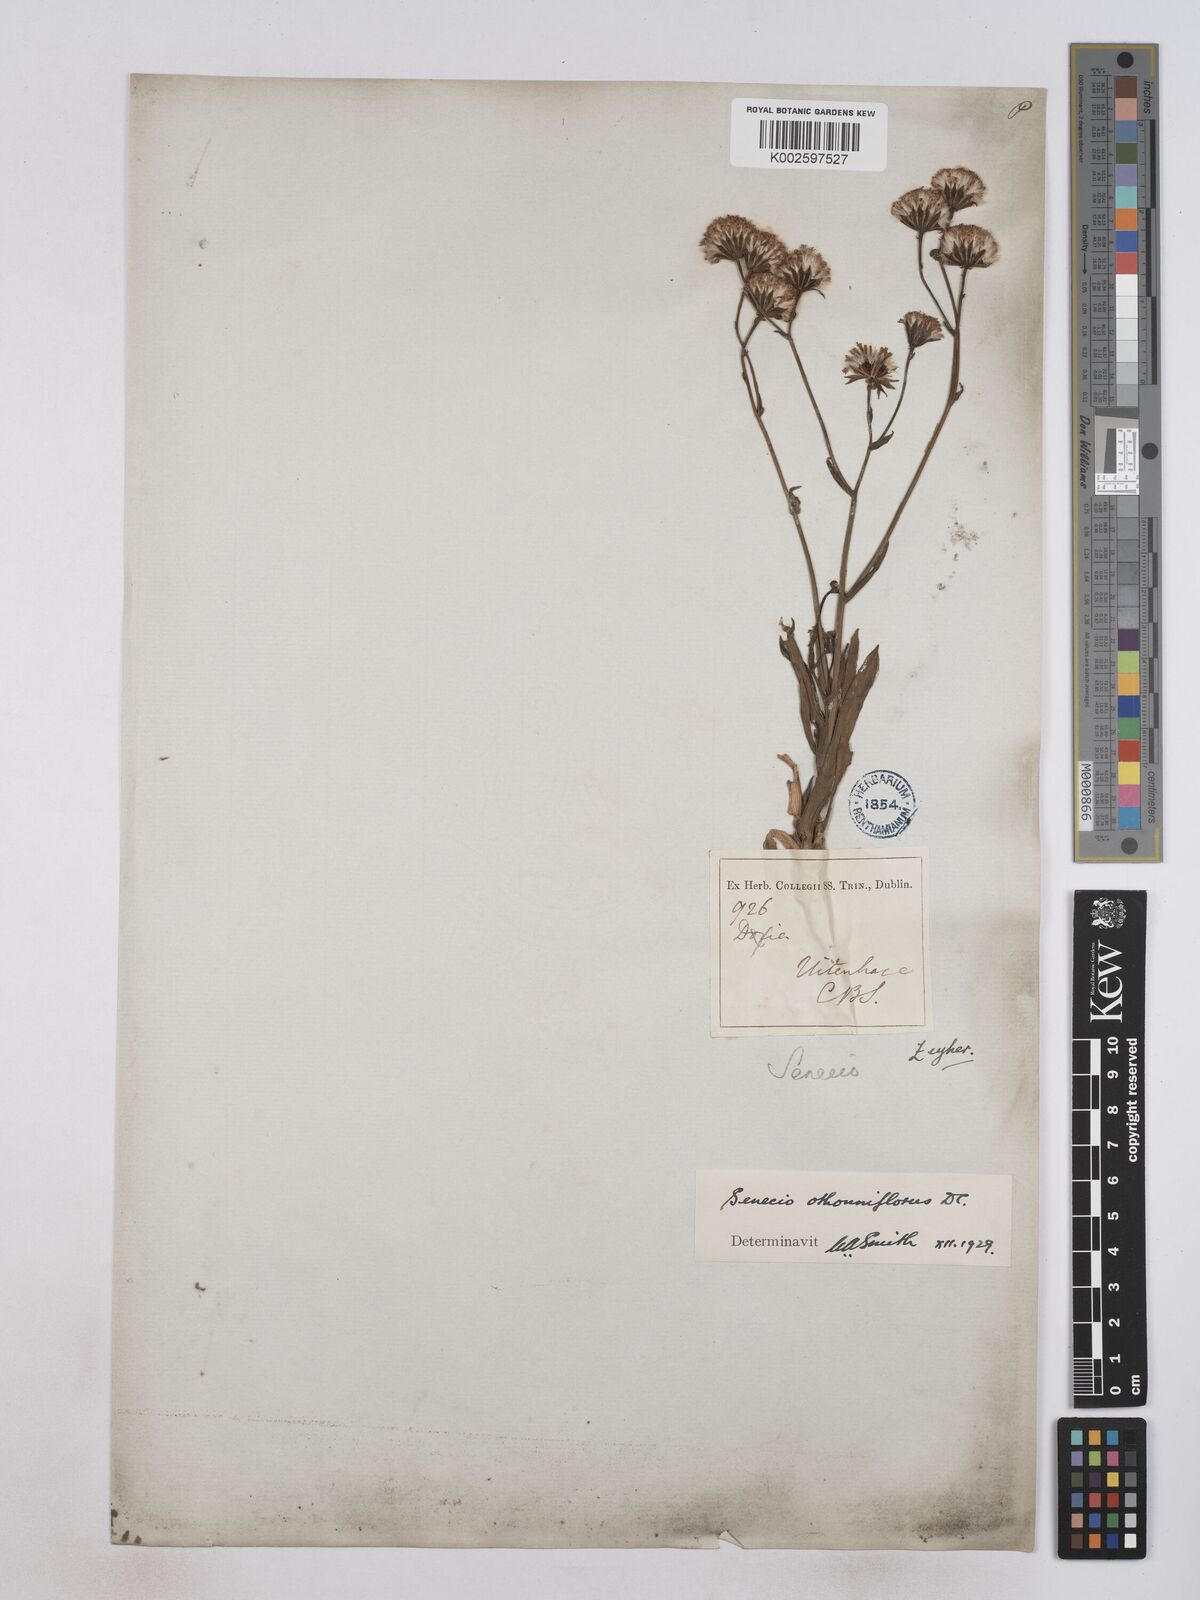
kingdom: Plantae
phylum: Tracheophyta
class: Magnoliopsida
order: Asterales
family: Asteraceae
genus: Senecio
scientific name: Senecio othonniflorus
